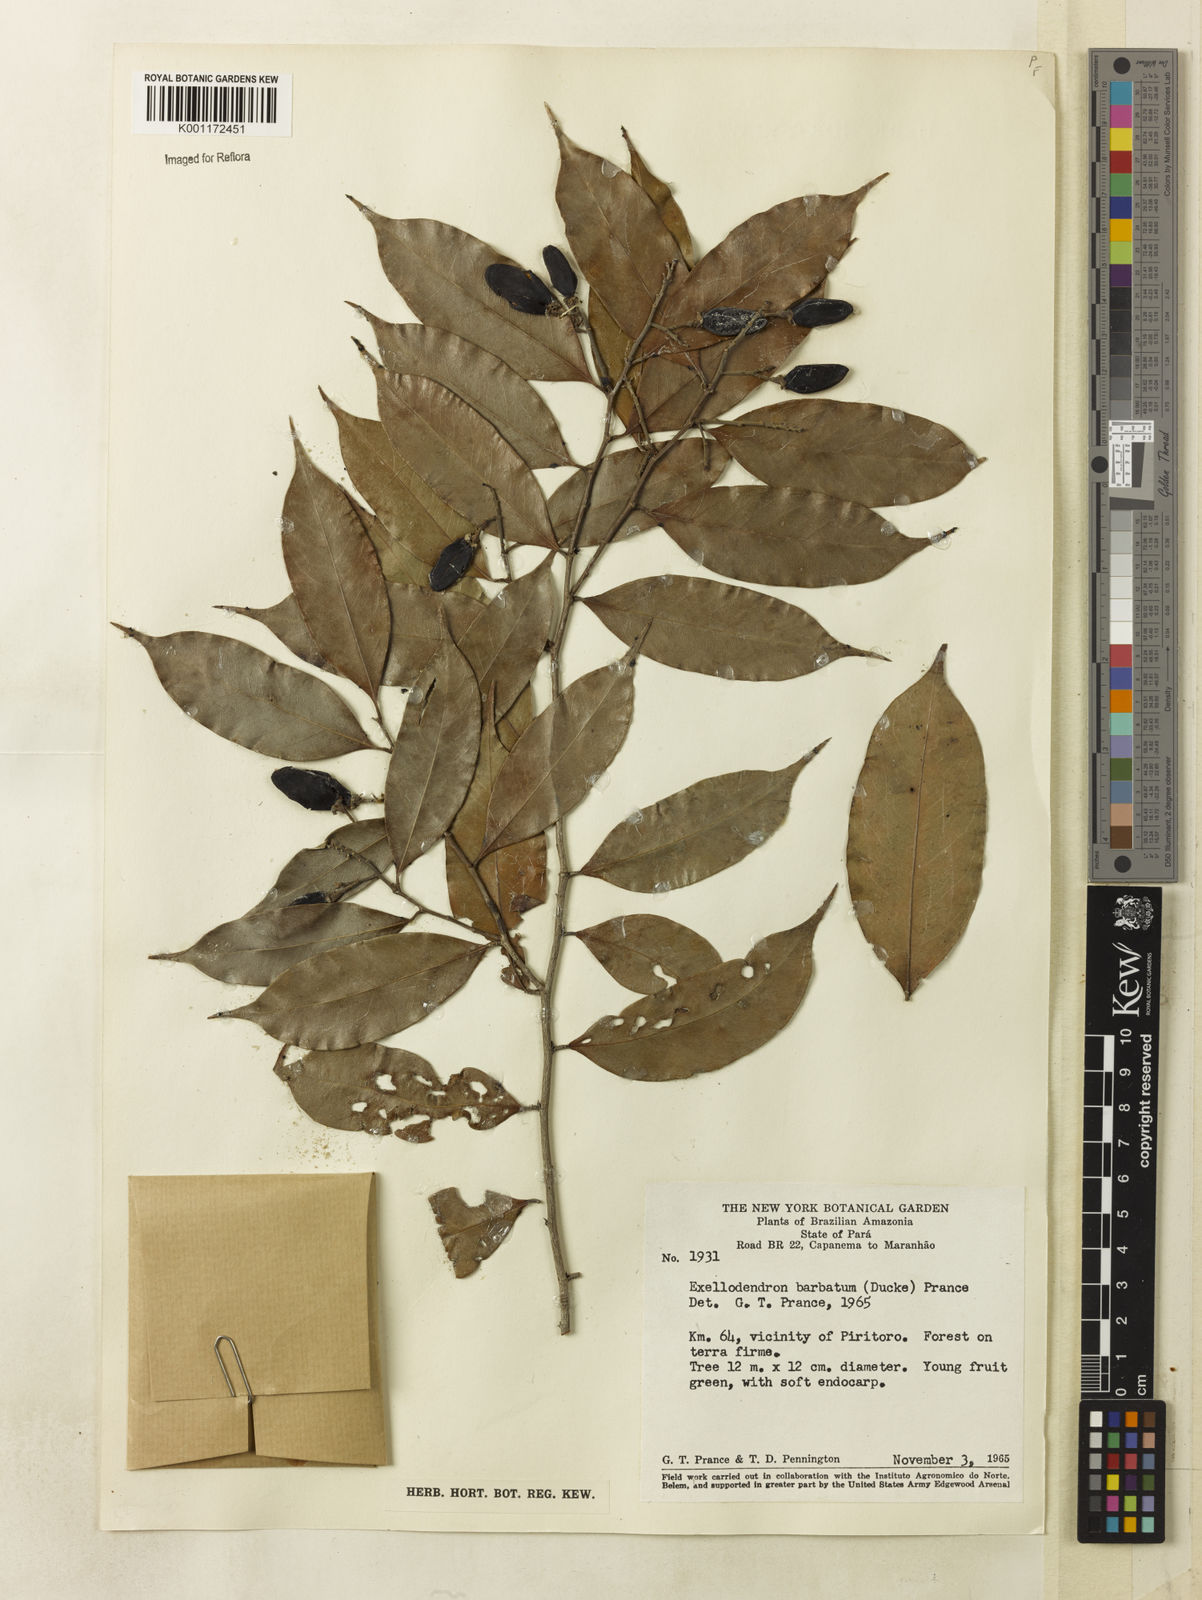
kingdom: Plantae
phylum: Tracheophyta
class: Magnoliopsida
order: Malpighiales
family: Chrysobalanaceae
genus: Atuna
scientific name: Atuna
